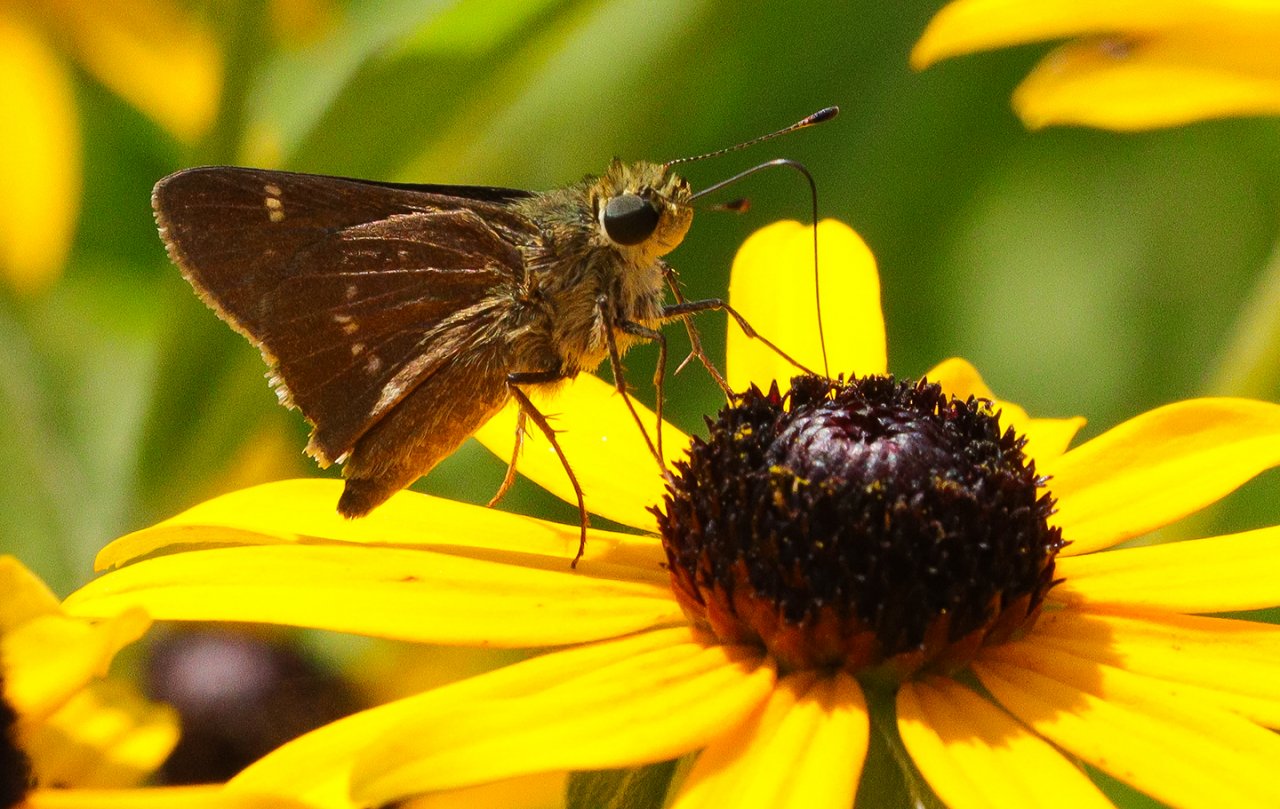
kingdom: Animalia
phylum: Arthropoda
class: Insecta
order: Lepidoptera
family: Hesperiidae
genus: Vernia
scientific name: Vernia verna
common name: Little Glassywing
